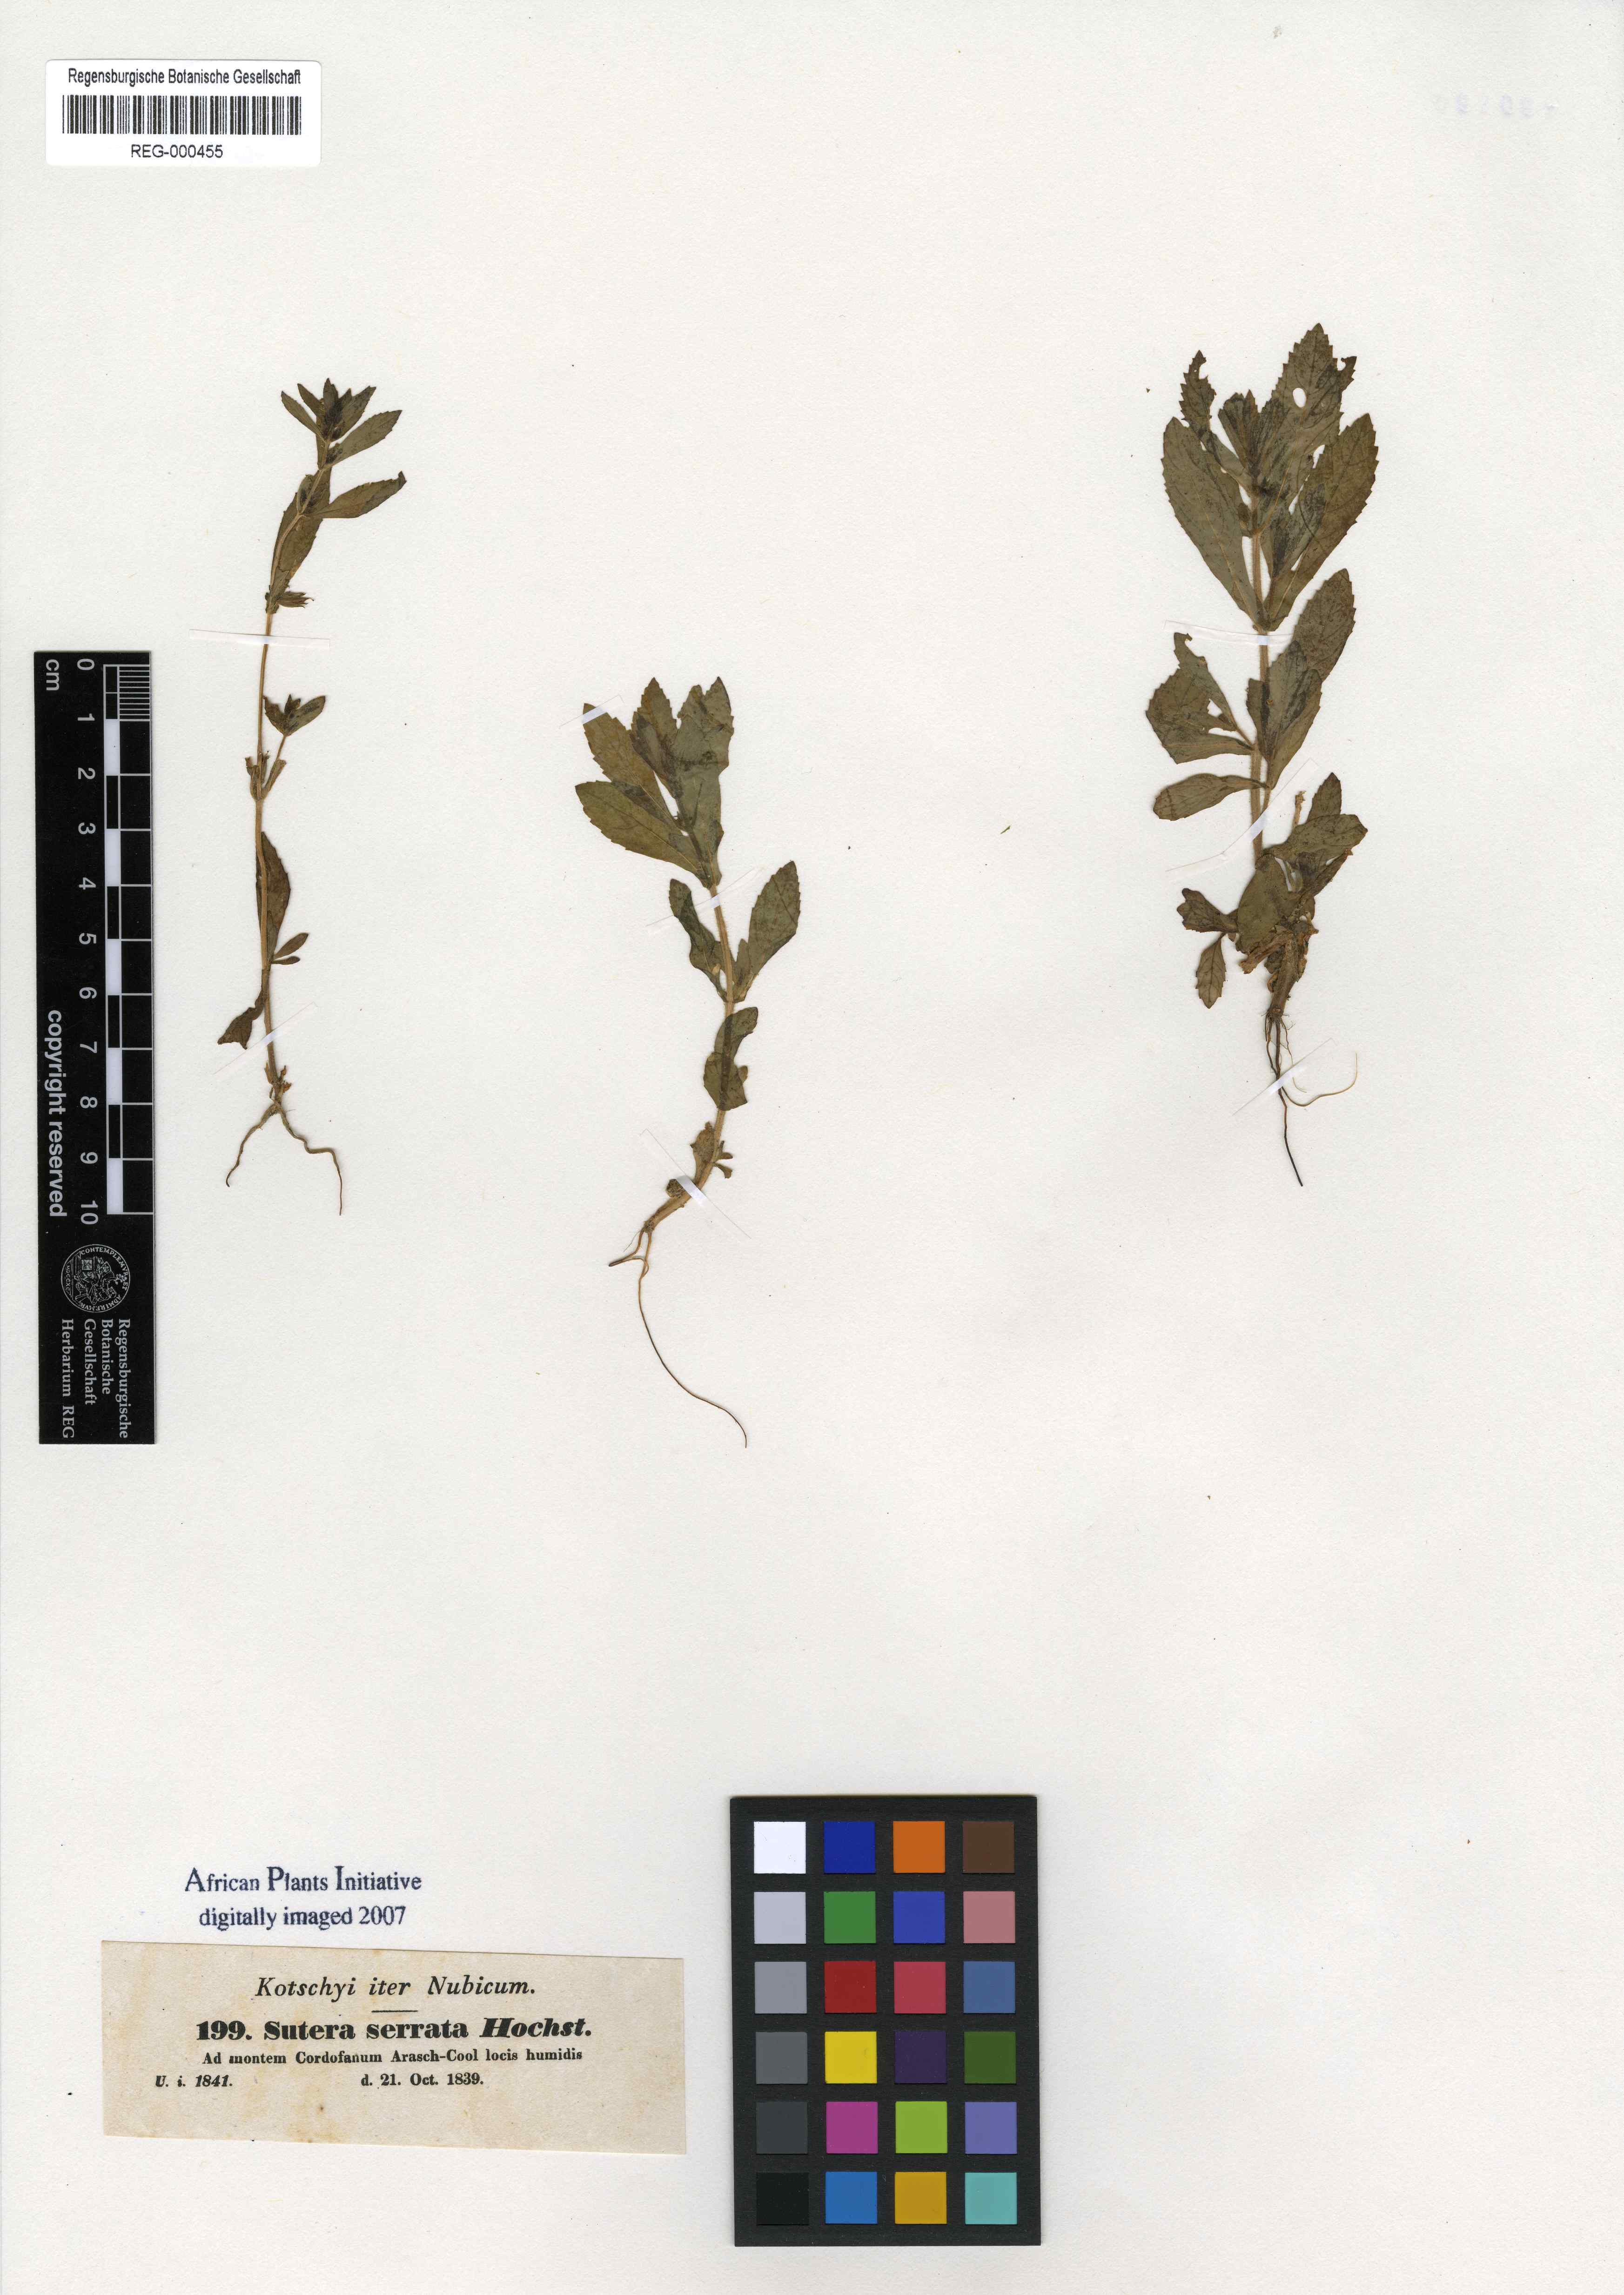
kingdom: Plantae
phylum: Tracheophyta
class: Magnoliopsida
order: Lamiales
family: Plantaginaceae
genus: Stemodia
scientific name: Stemodia serrata
